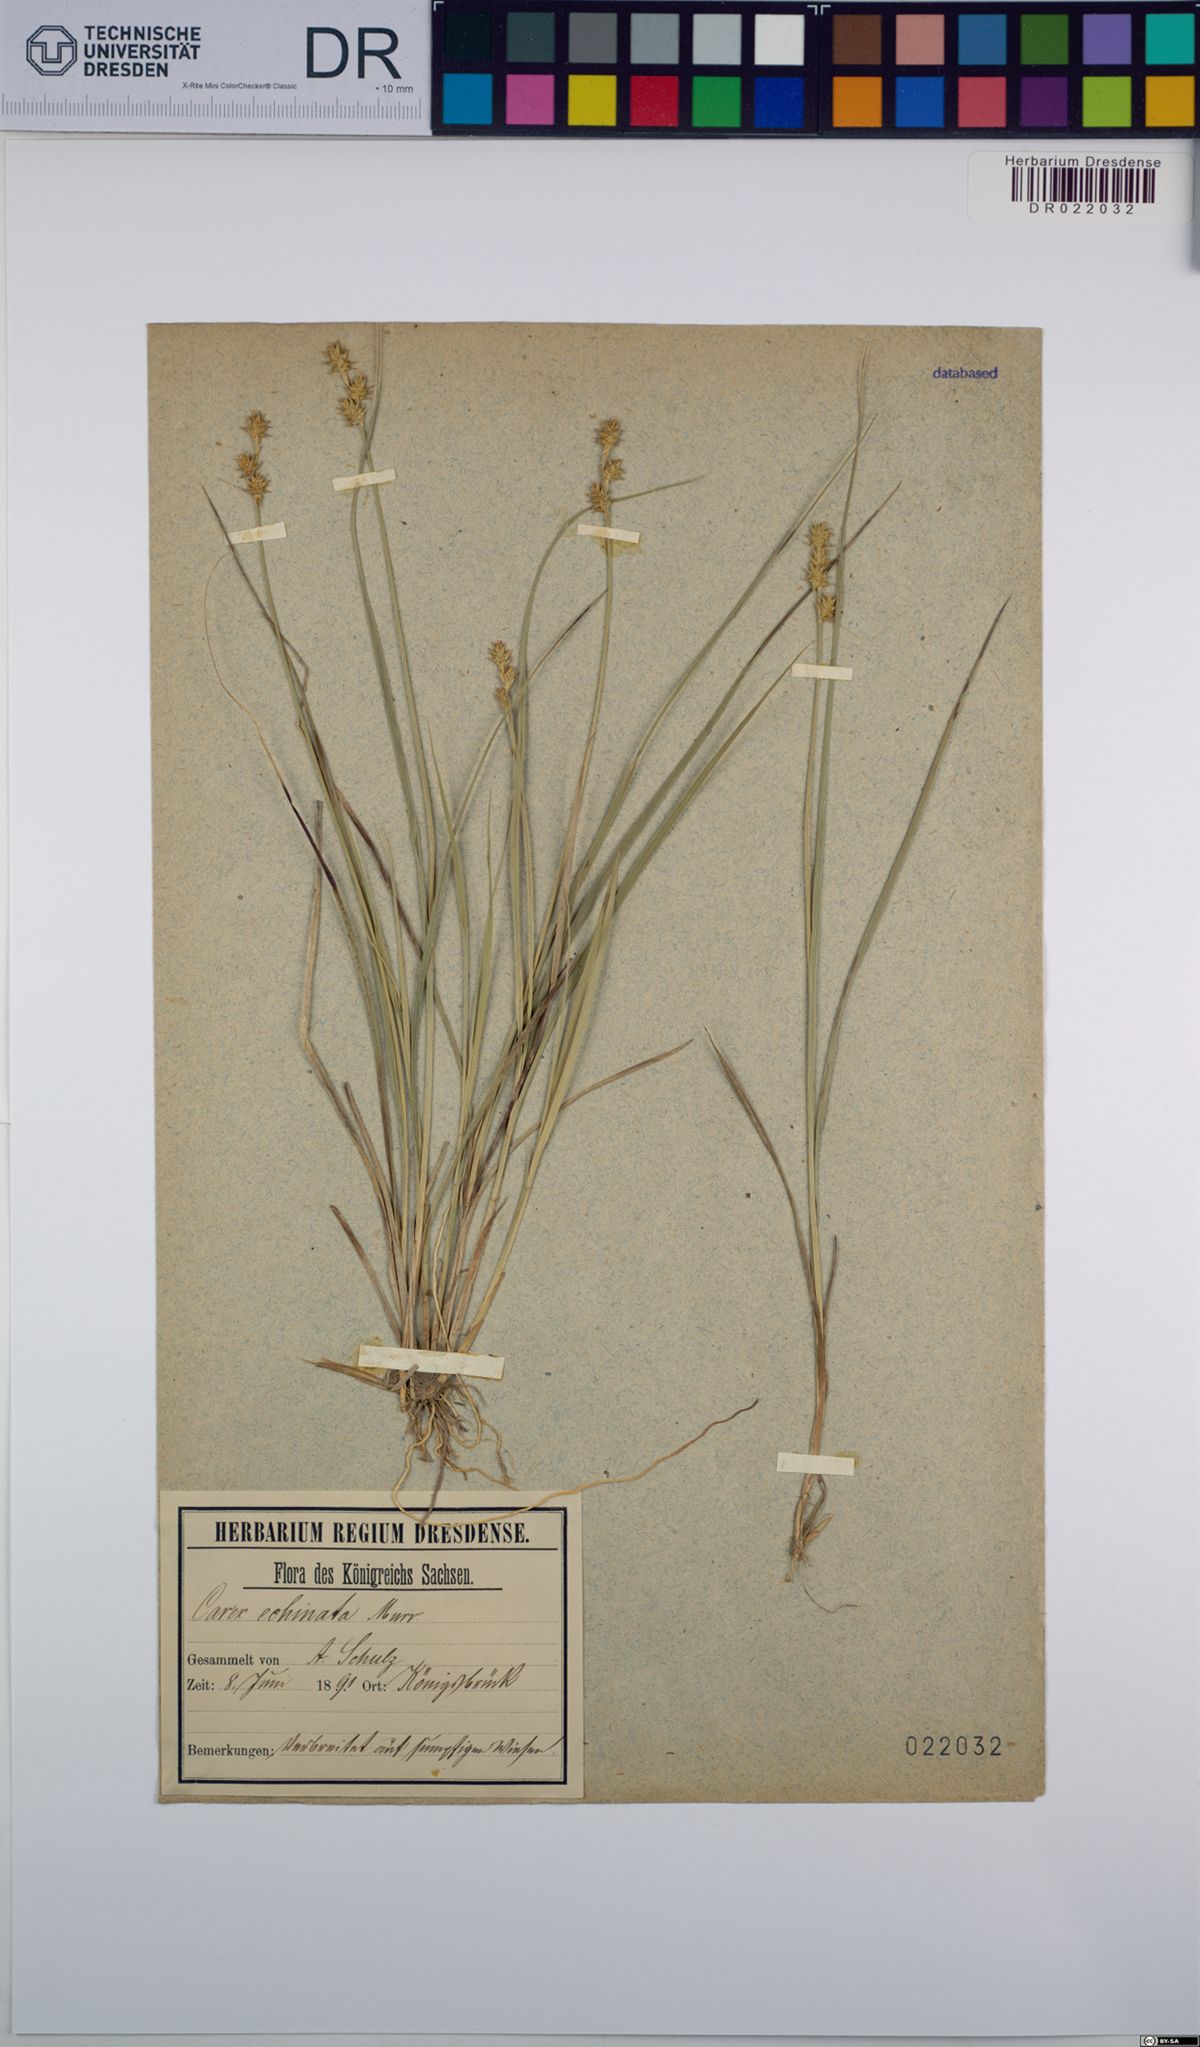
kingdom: Plantae
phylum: Tracheophyta
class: Liliopsida
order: Poales
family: Cyperaceae
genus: Carex
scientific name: Carex echinata
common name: Star sedge
